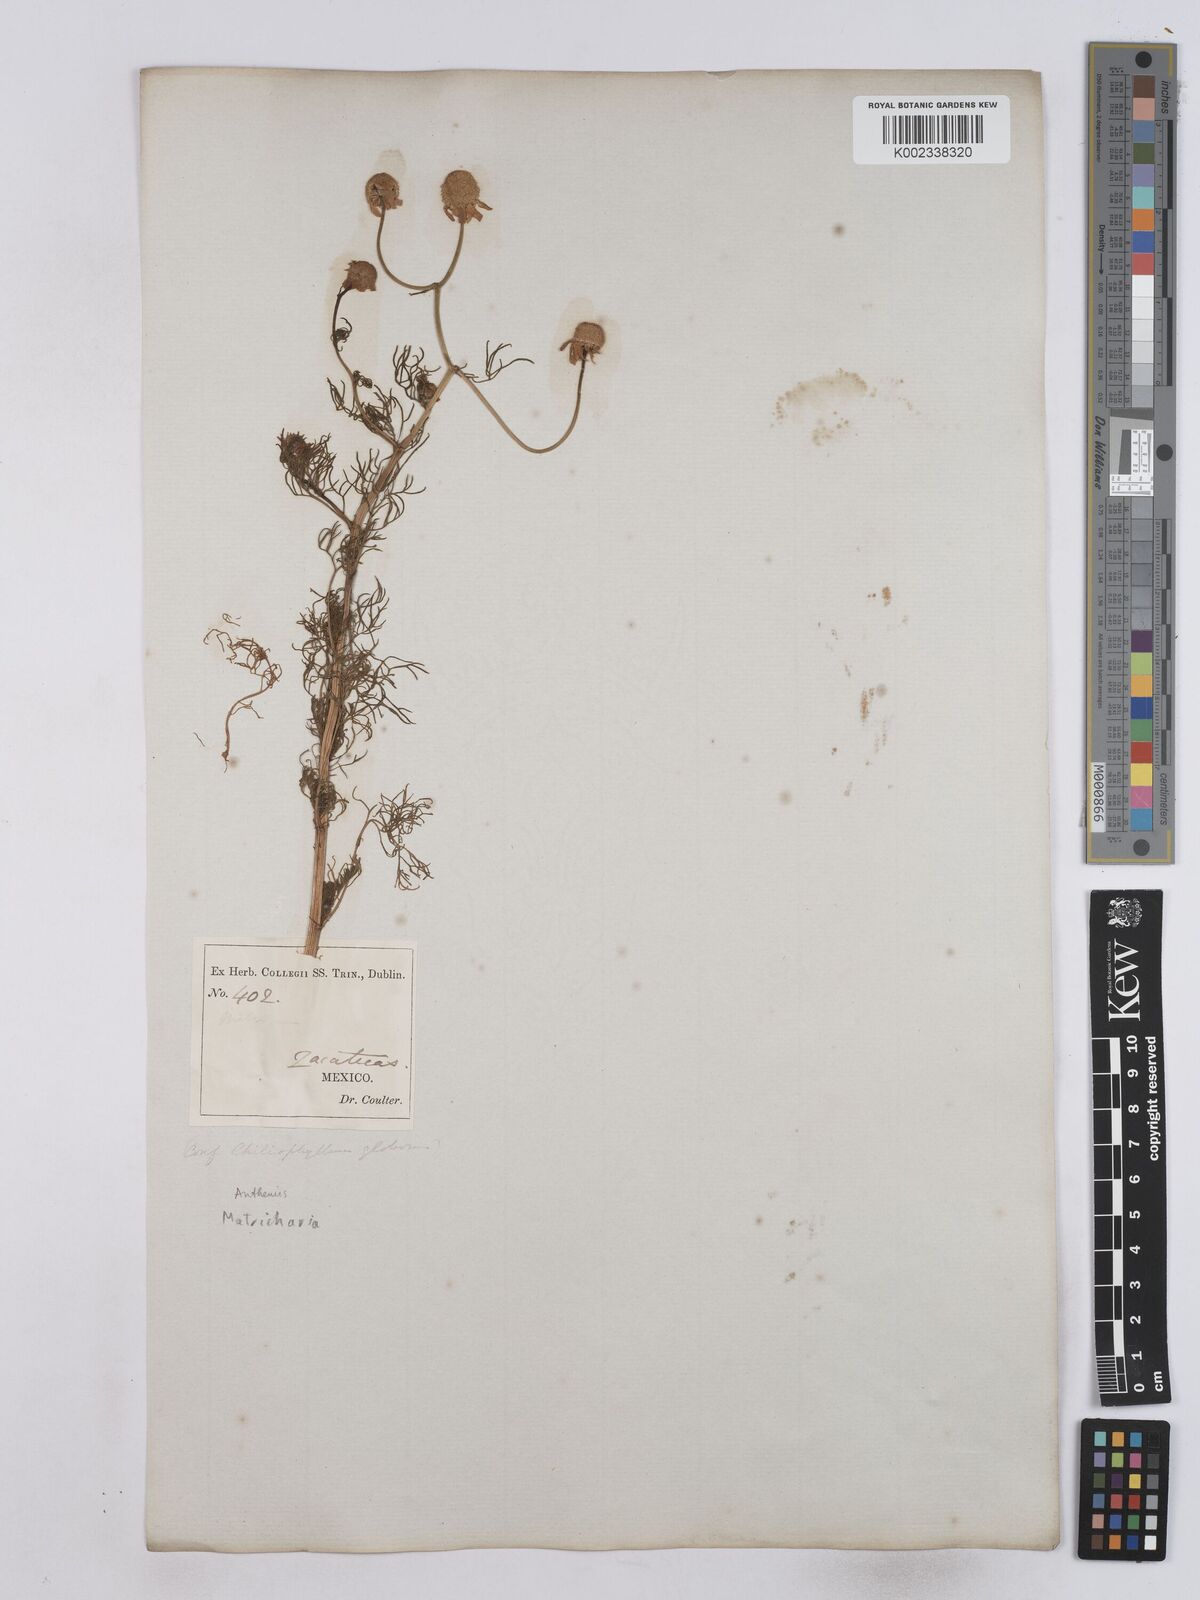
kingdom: Plantae
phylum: Tracheophyta
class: Magnoliopsida
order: Asterales
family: Asteraceae
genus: Matricaria
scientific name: Matricaria chamomilla
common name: Scented mayweed
